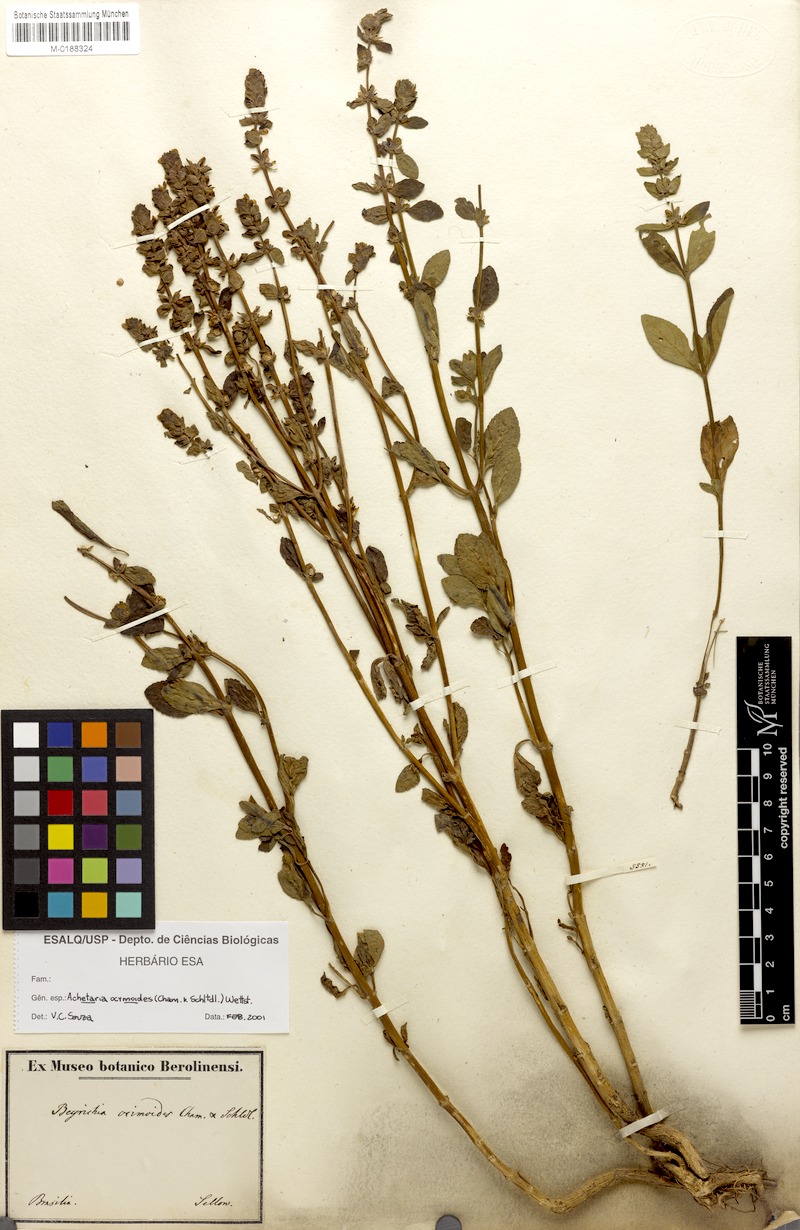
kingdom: Plantae
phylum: Tracheophyta
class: Magnoliopsida
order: Lamiales
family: Plantaginaceae
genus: Matourea
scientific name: Matourea ocymoides
